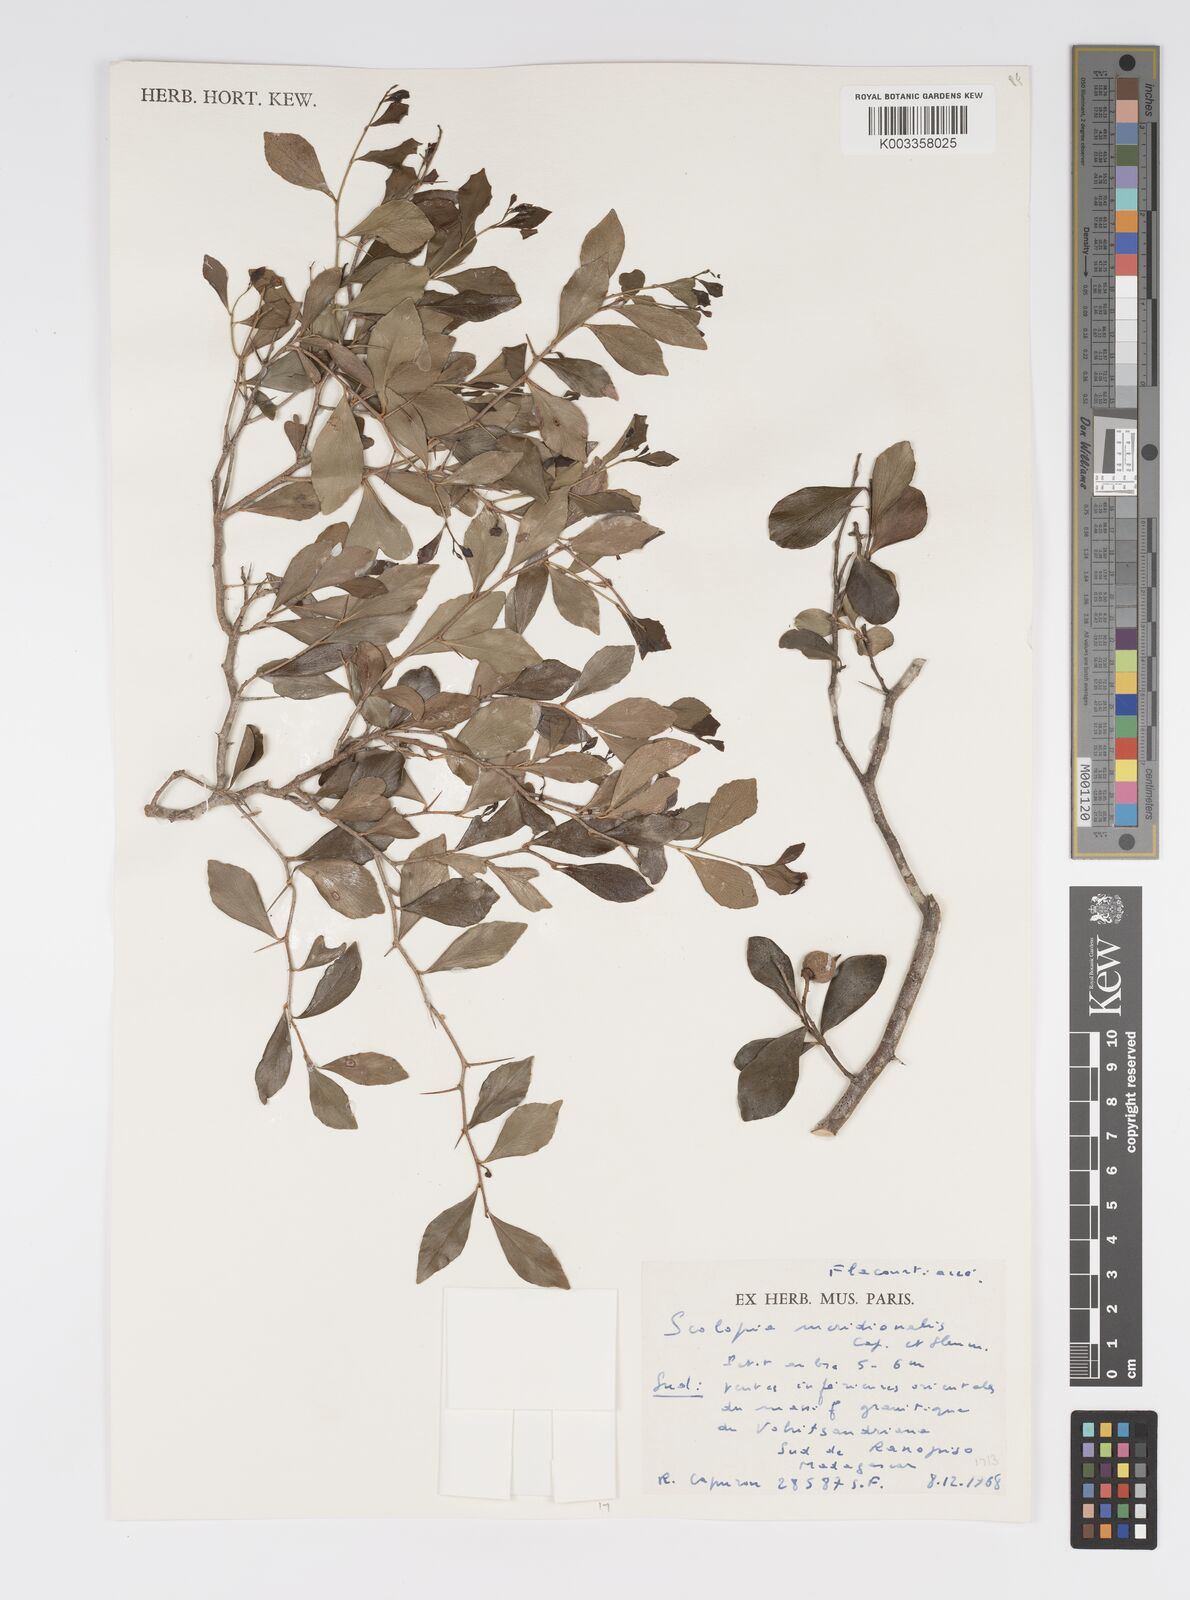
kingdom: Plantae
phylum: Tracheophyta
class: Magnoliopsida
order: Malpighiales
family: Salicaceae
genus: Scolopia
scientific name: Scolopia meridionalis
